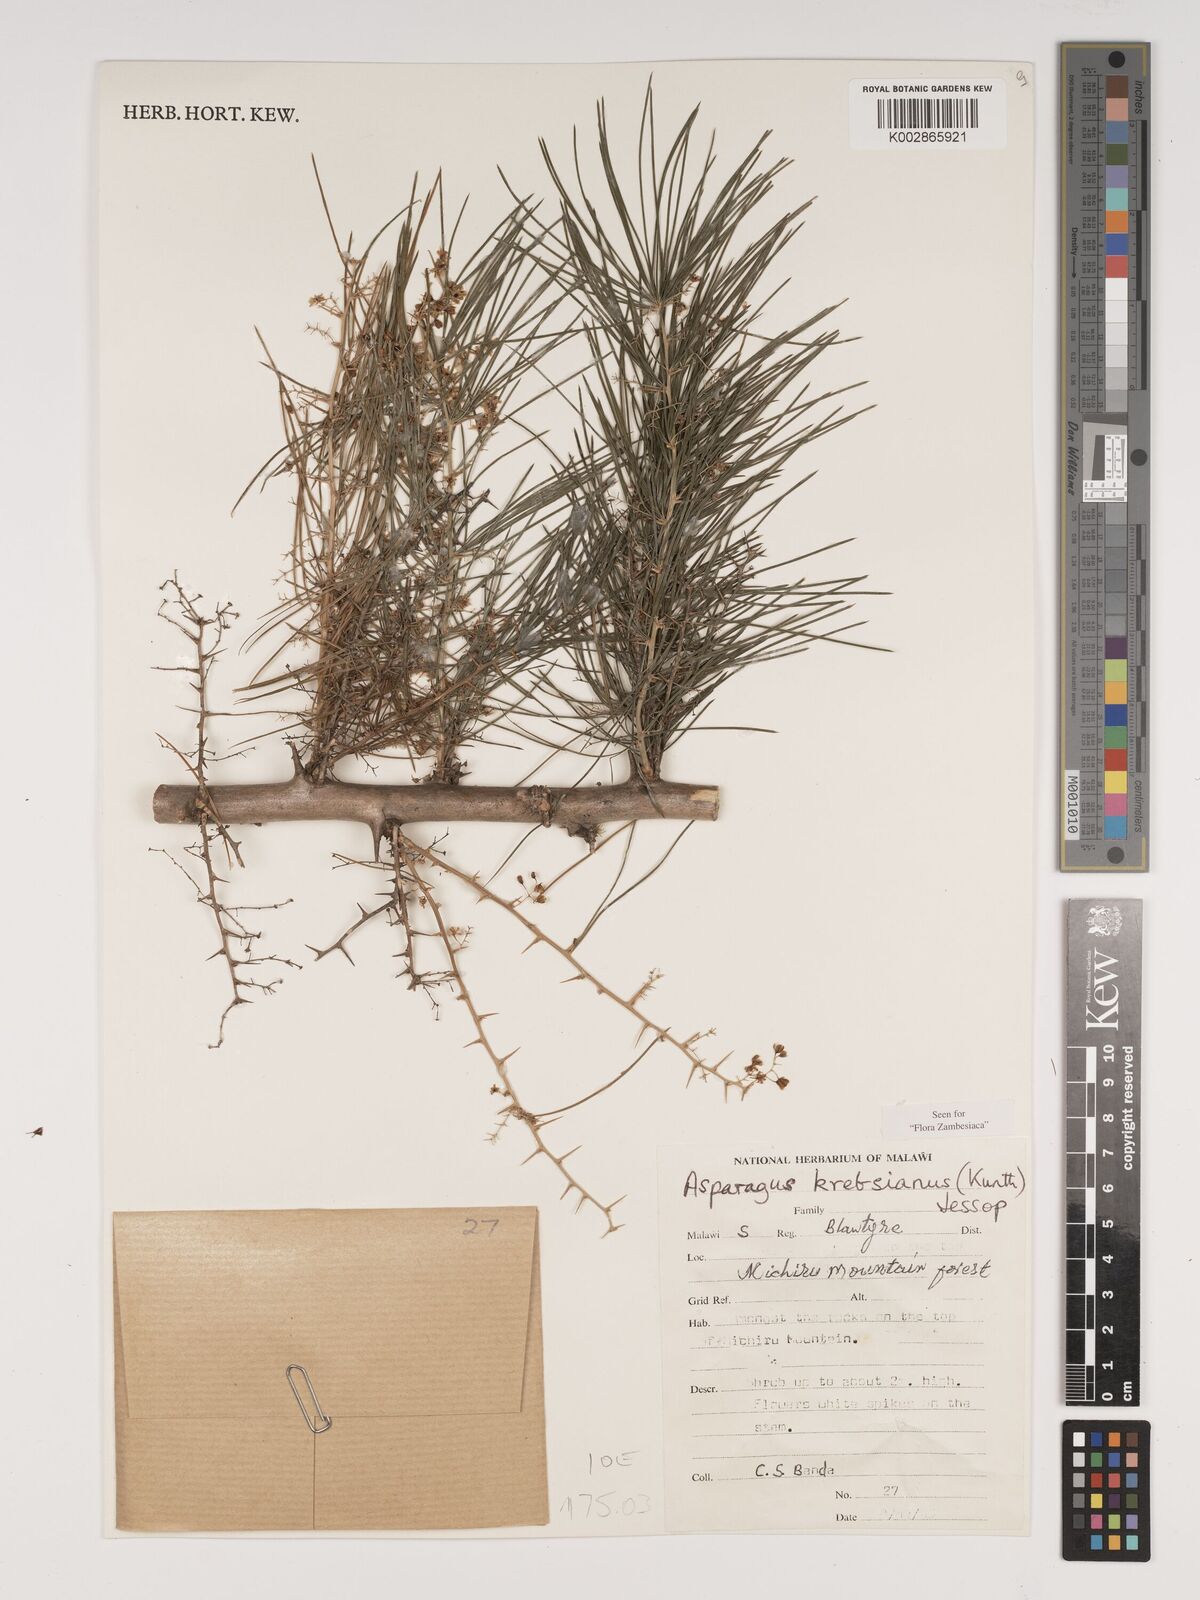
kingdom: Plantae
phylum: Tracheophyta
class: Liliopsida
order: Asparagales
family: Asparagaceae
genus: Asparagus
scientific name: Asparagus krebsianus
